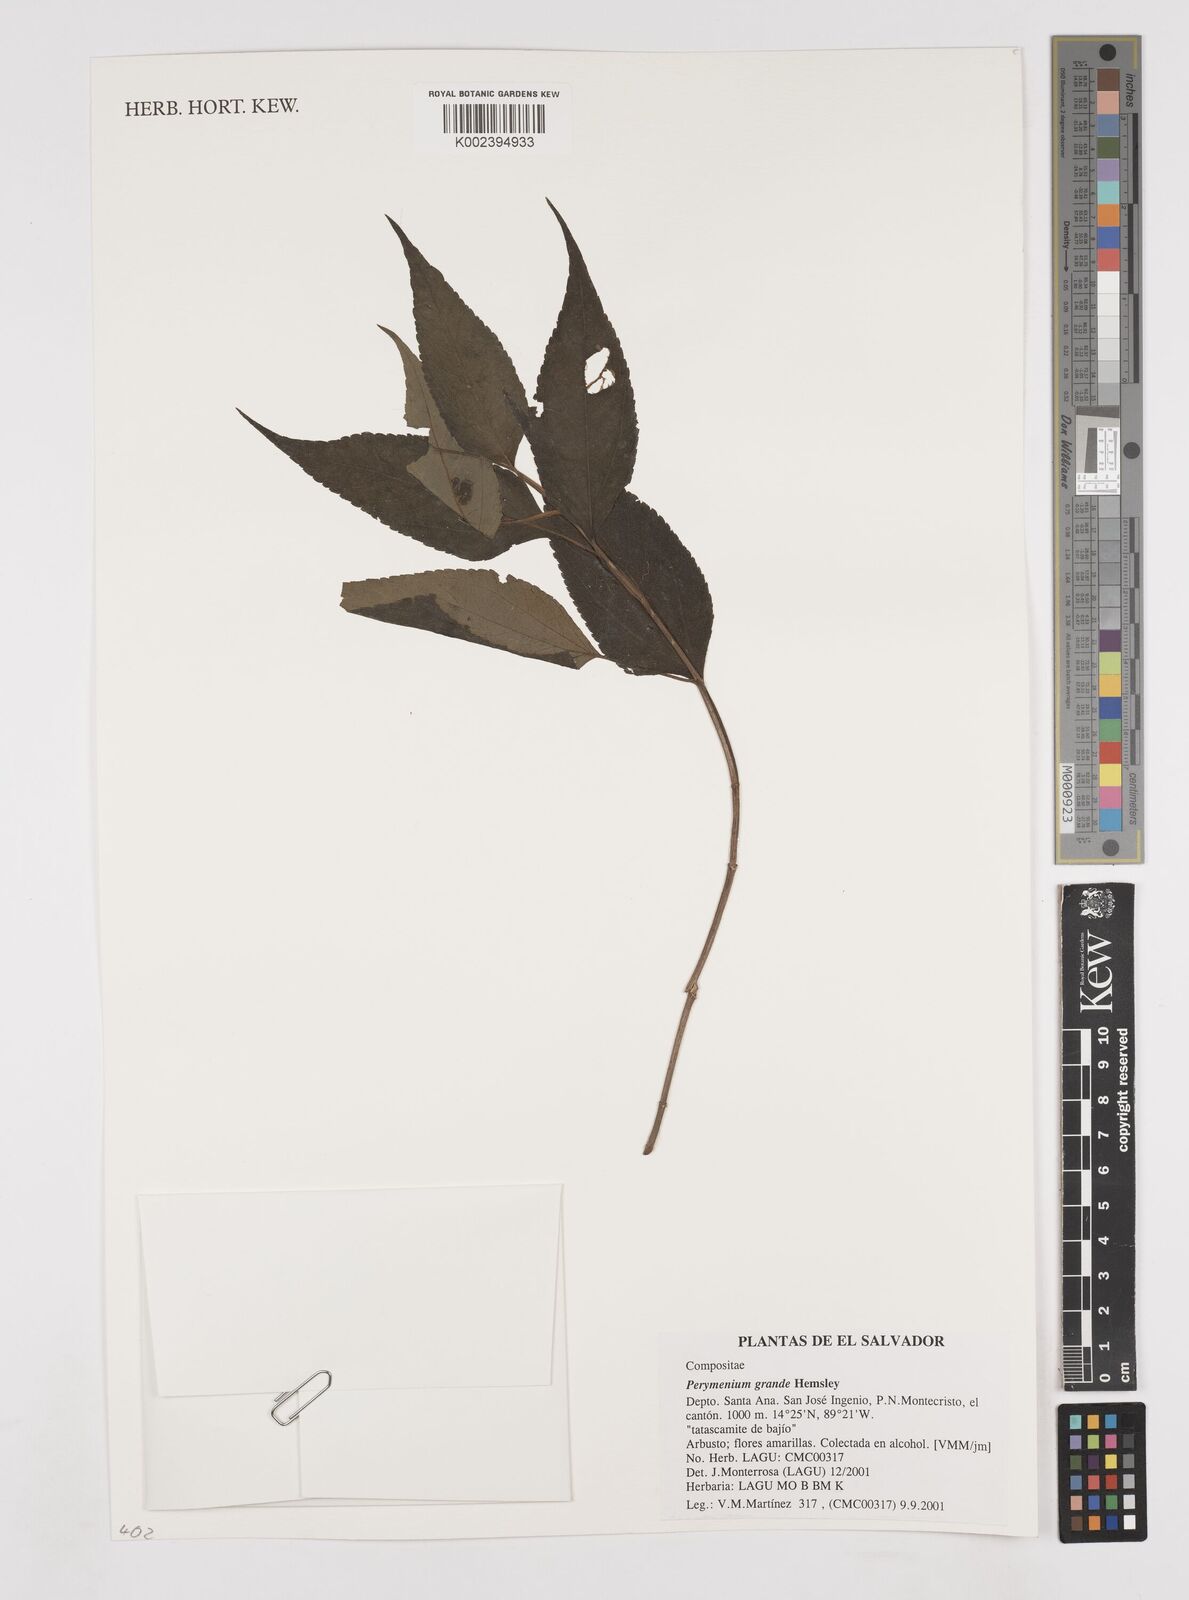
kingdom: Plantae
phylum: Tracheophyta
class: Magnoliopsida
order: Asterales
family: Asteraceae
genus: Perymenium
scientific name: Perymenium grande
